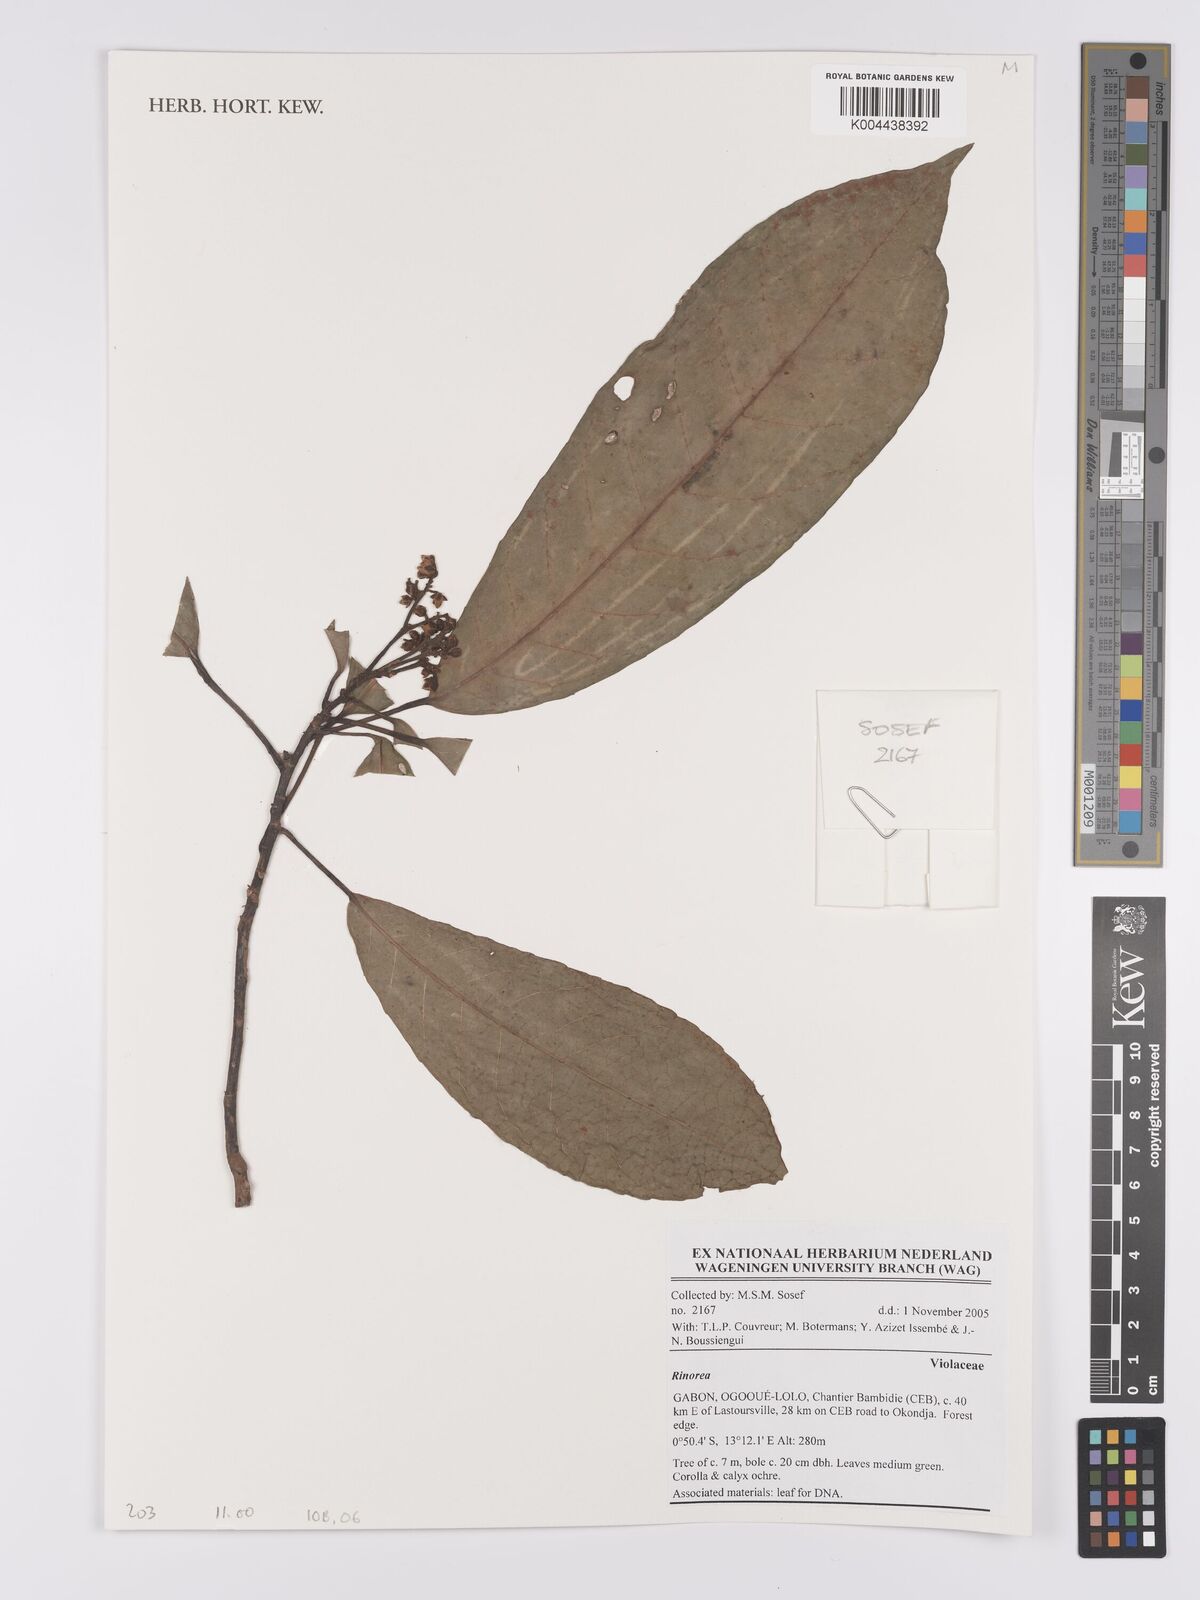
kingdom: Plantae
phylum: Tracheophyta
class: Magnoliopsida
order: Malpighiales
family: Violaceae
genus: Rinorea
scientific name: Rinorea
